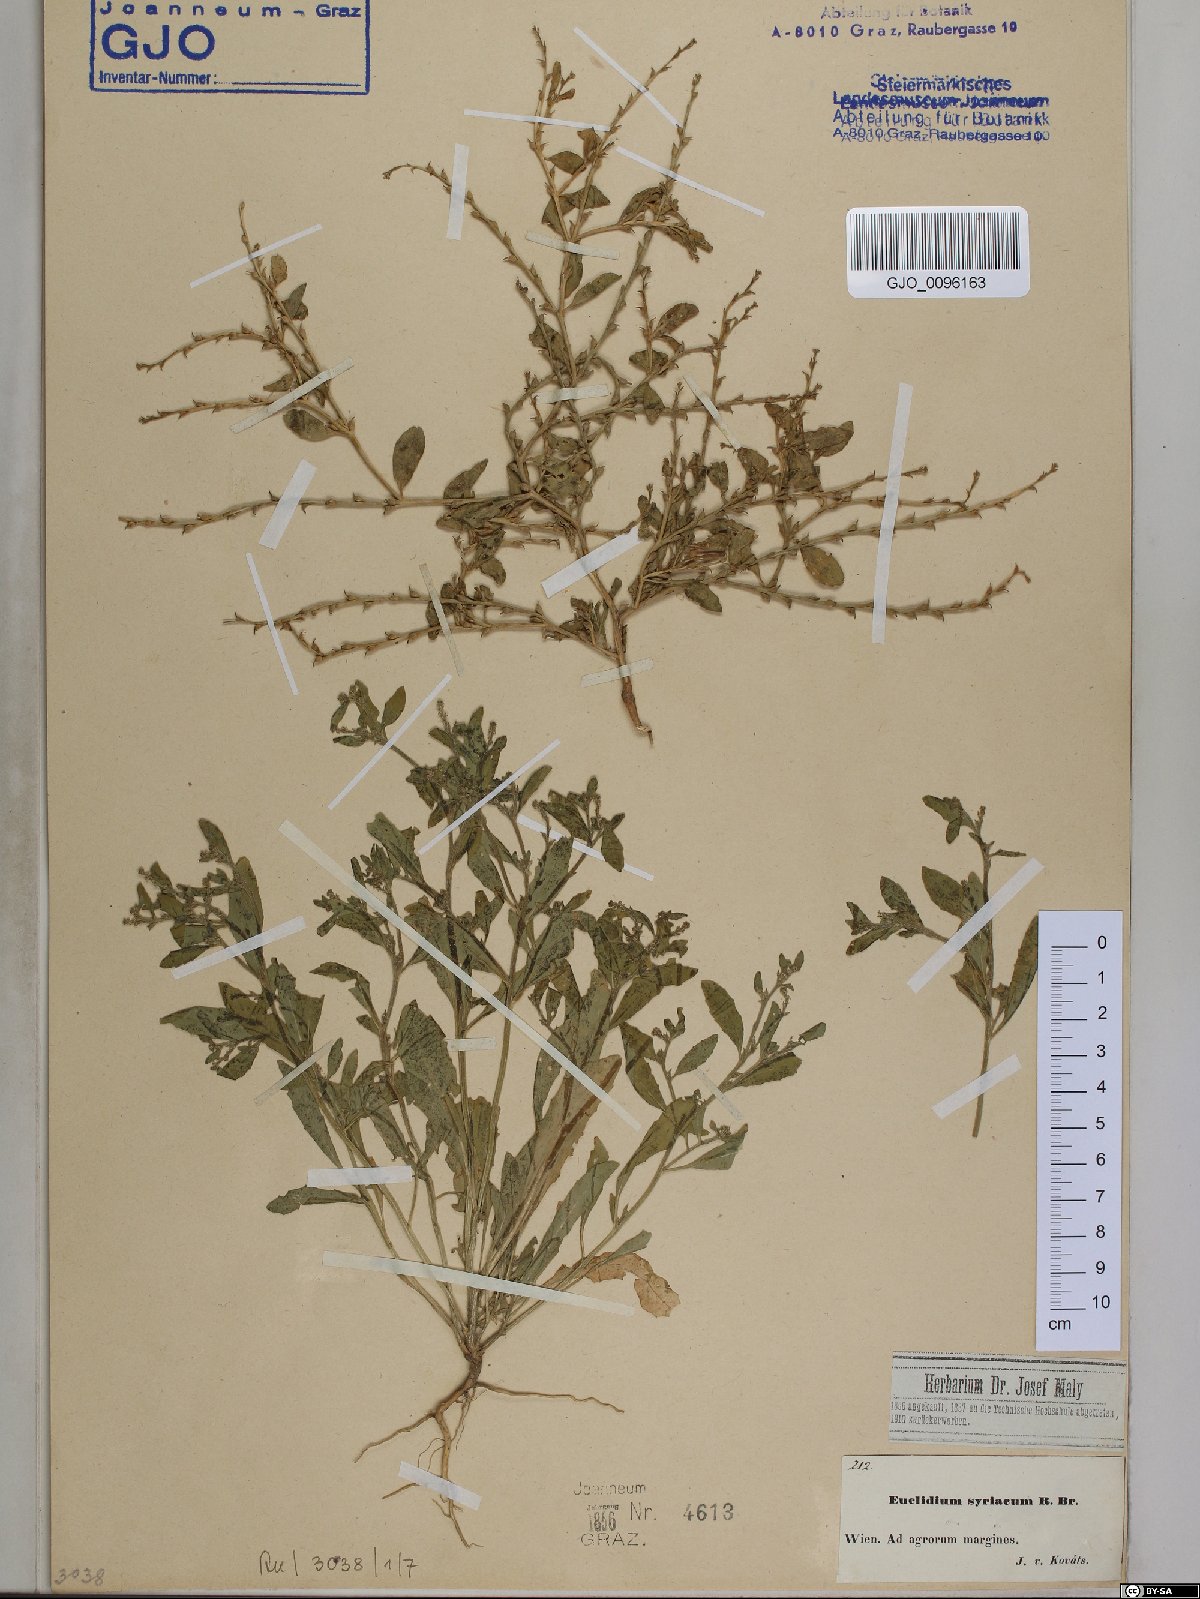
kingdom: Plantae
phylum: Tracheophyta
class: Magnoliopsida
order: Brassicales
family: Brassicaceae
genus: Euclidium
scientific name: Euclidium syriacum
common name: Syrian mustard
